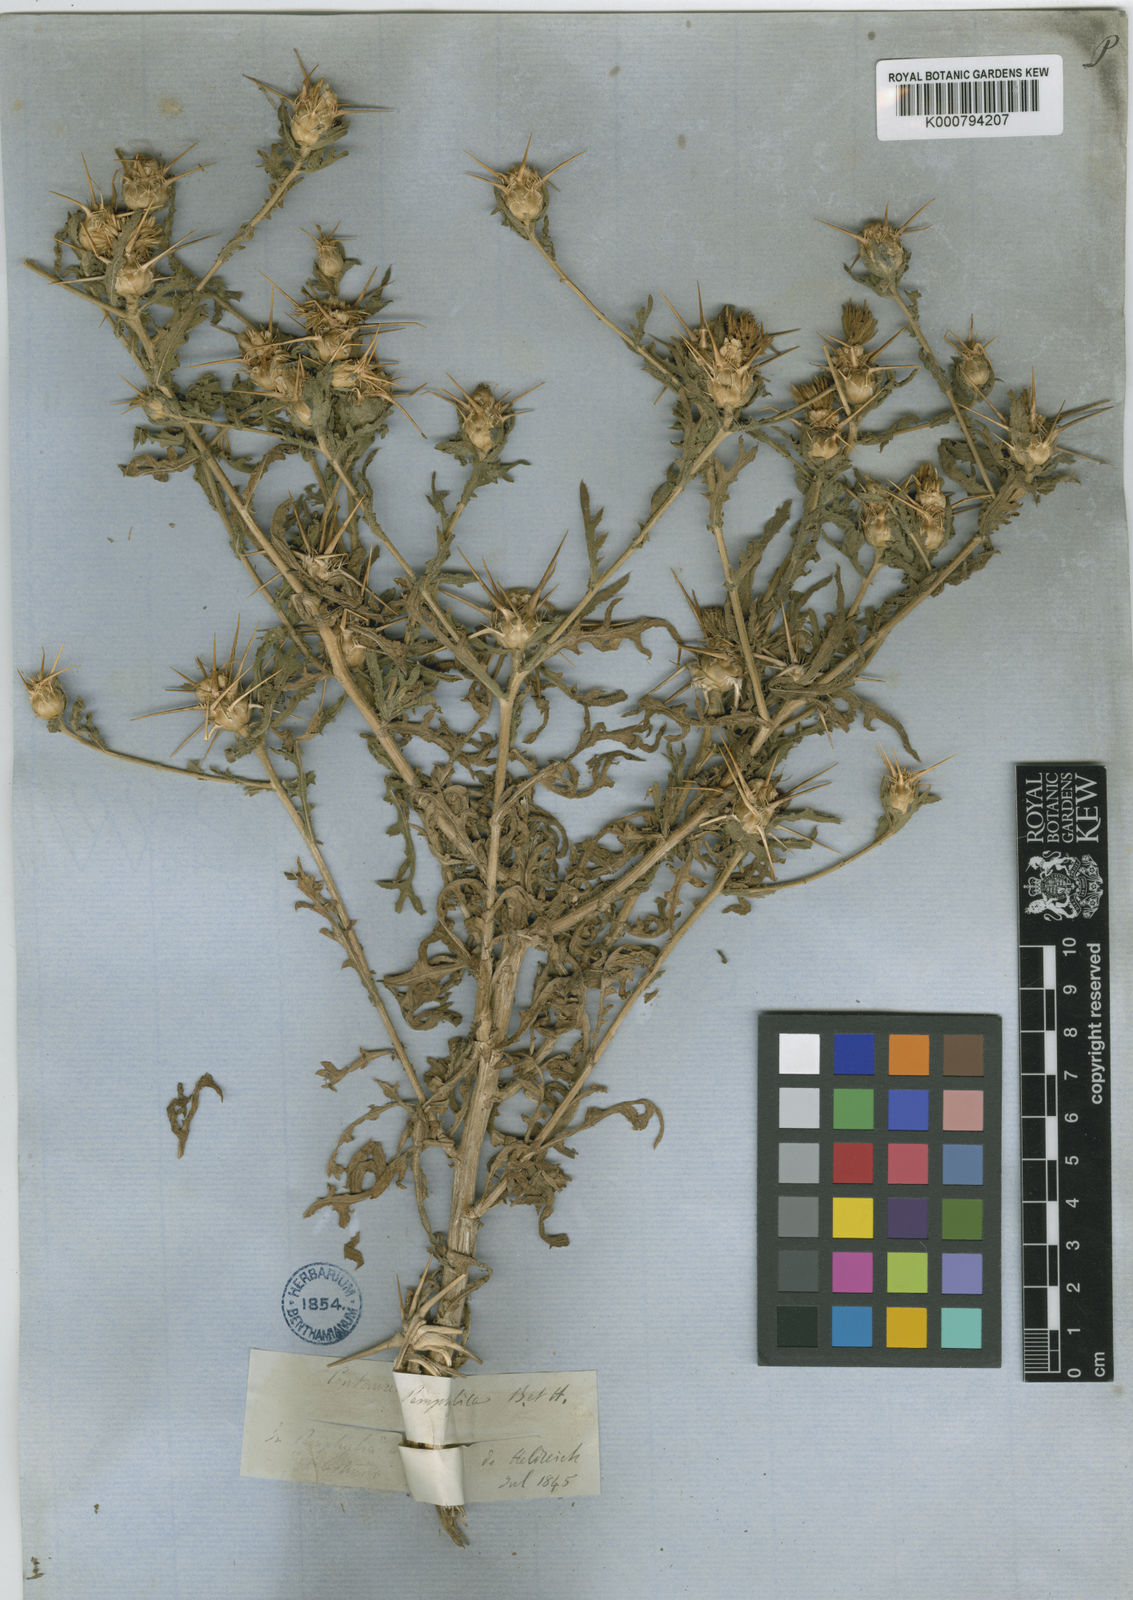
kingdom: Plantae
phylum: Tracheophyta
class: Magnoliopsida
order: Asterales
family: Asteraceae
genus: Centaurea
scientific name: Centaurea pamphylica
